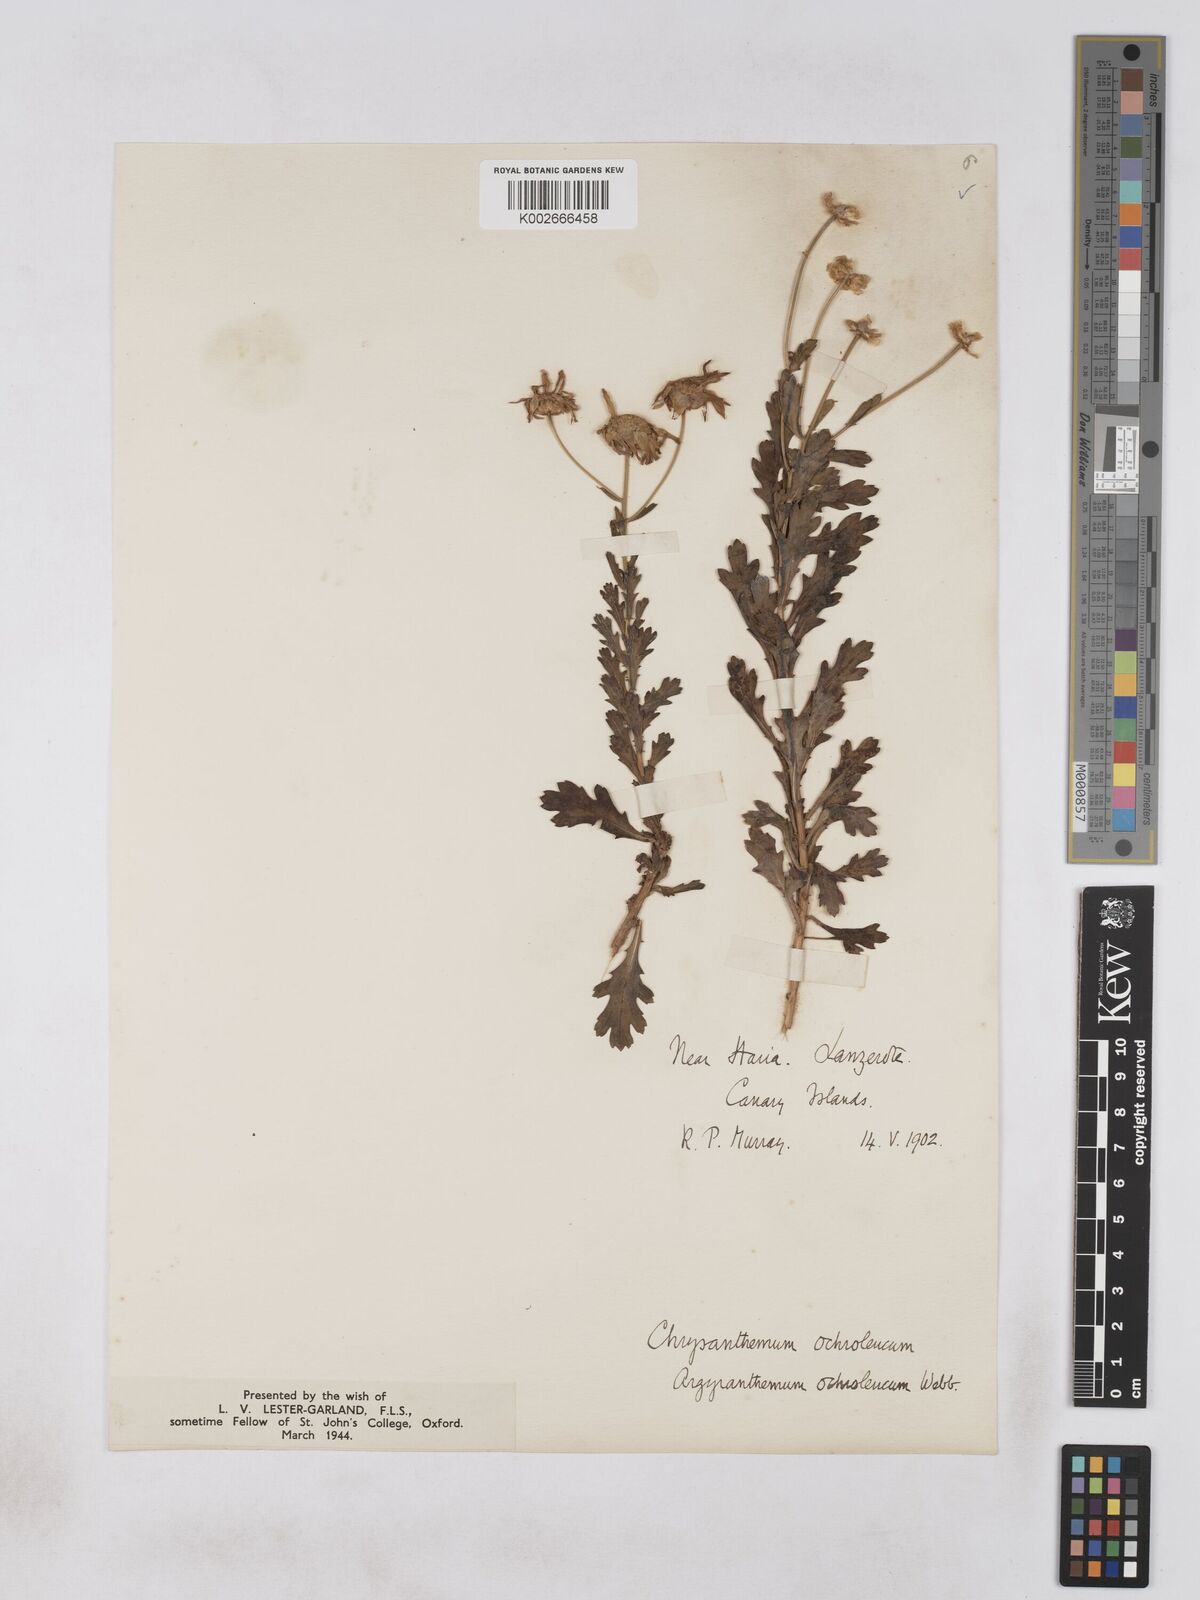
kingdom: Plantae
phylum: Tracheophyta
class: Magnoliopsida
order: Asterales
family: Asteraceae
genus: Argyranthemum
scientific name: Argyranthemum maderense
